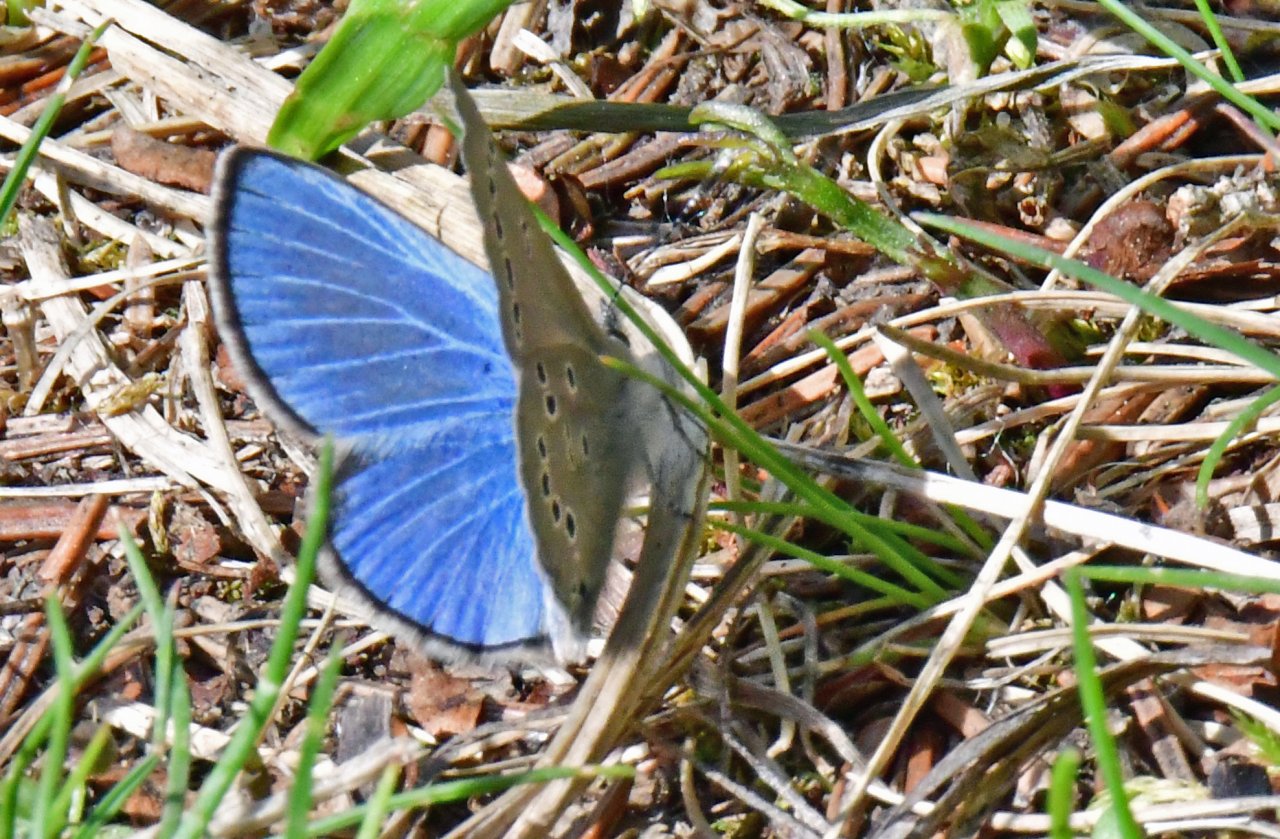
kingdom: Animalia
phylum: Arthropoda
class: Insecta
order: Lepidoptera
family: Lycaenidae
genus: Lycaena
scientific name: Lycaena heteronea
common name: Blue Copper
